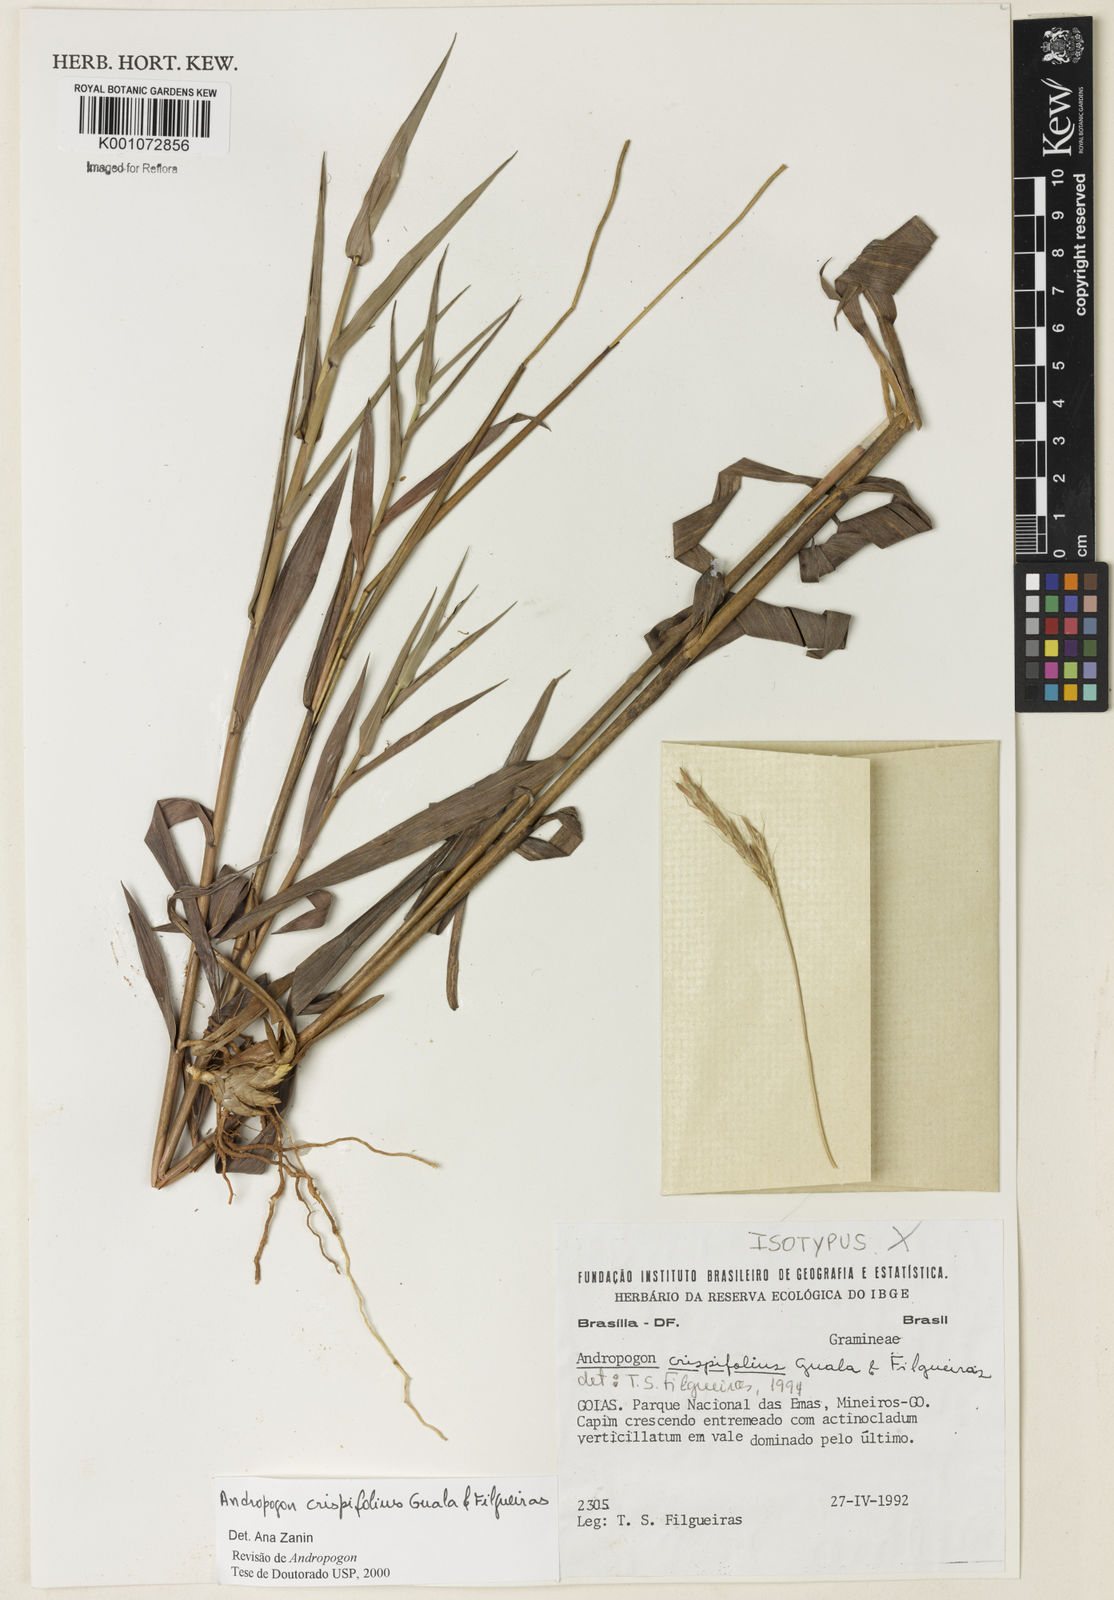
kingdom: Plantae
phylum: Tracheophyta
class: Liliopsida
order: Poales
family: Poaceae
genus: Andropogon
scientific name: Andropogon pohlianus
